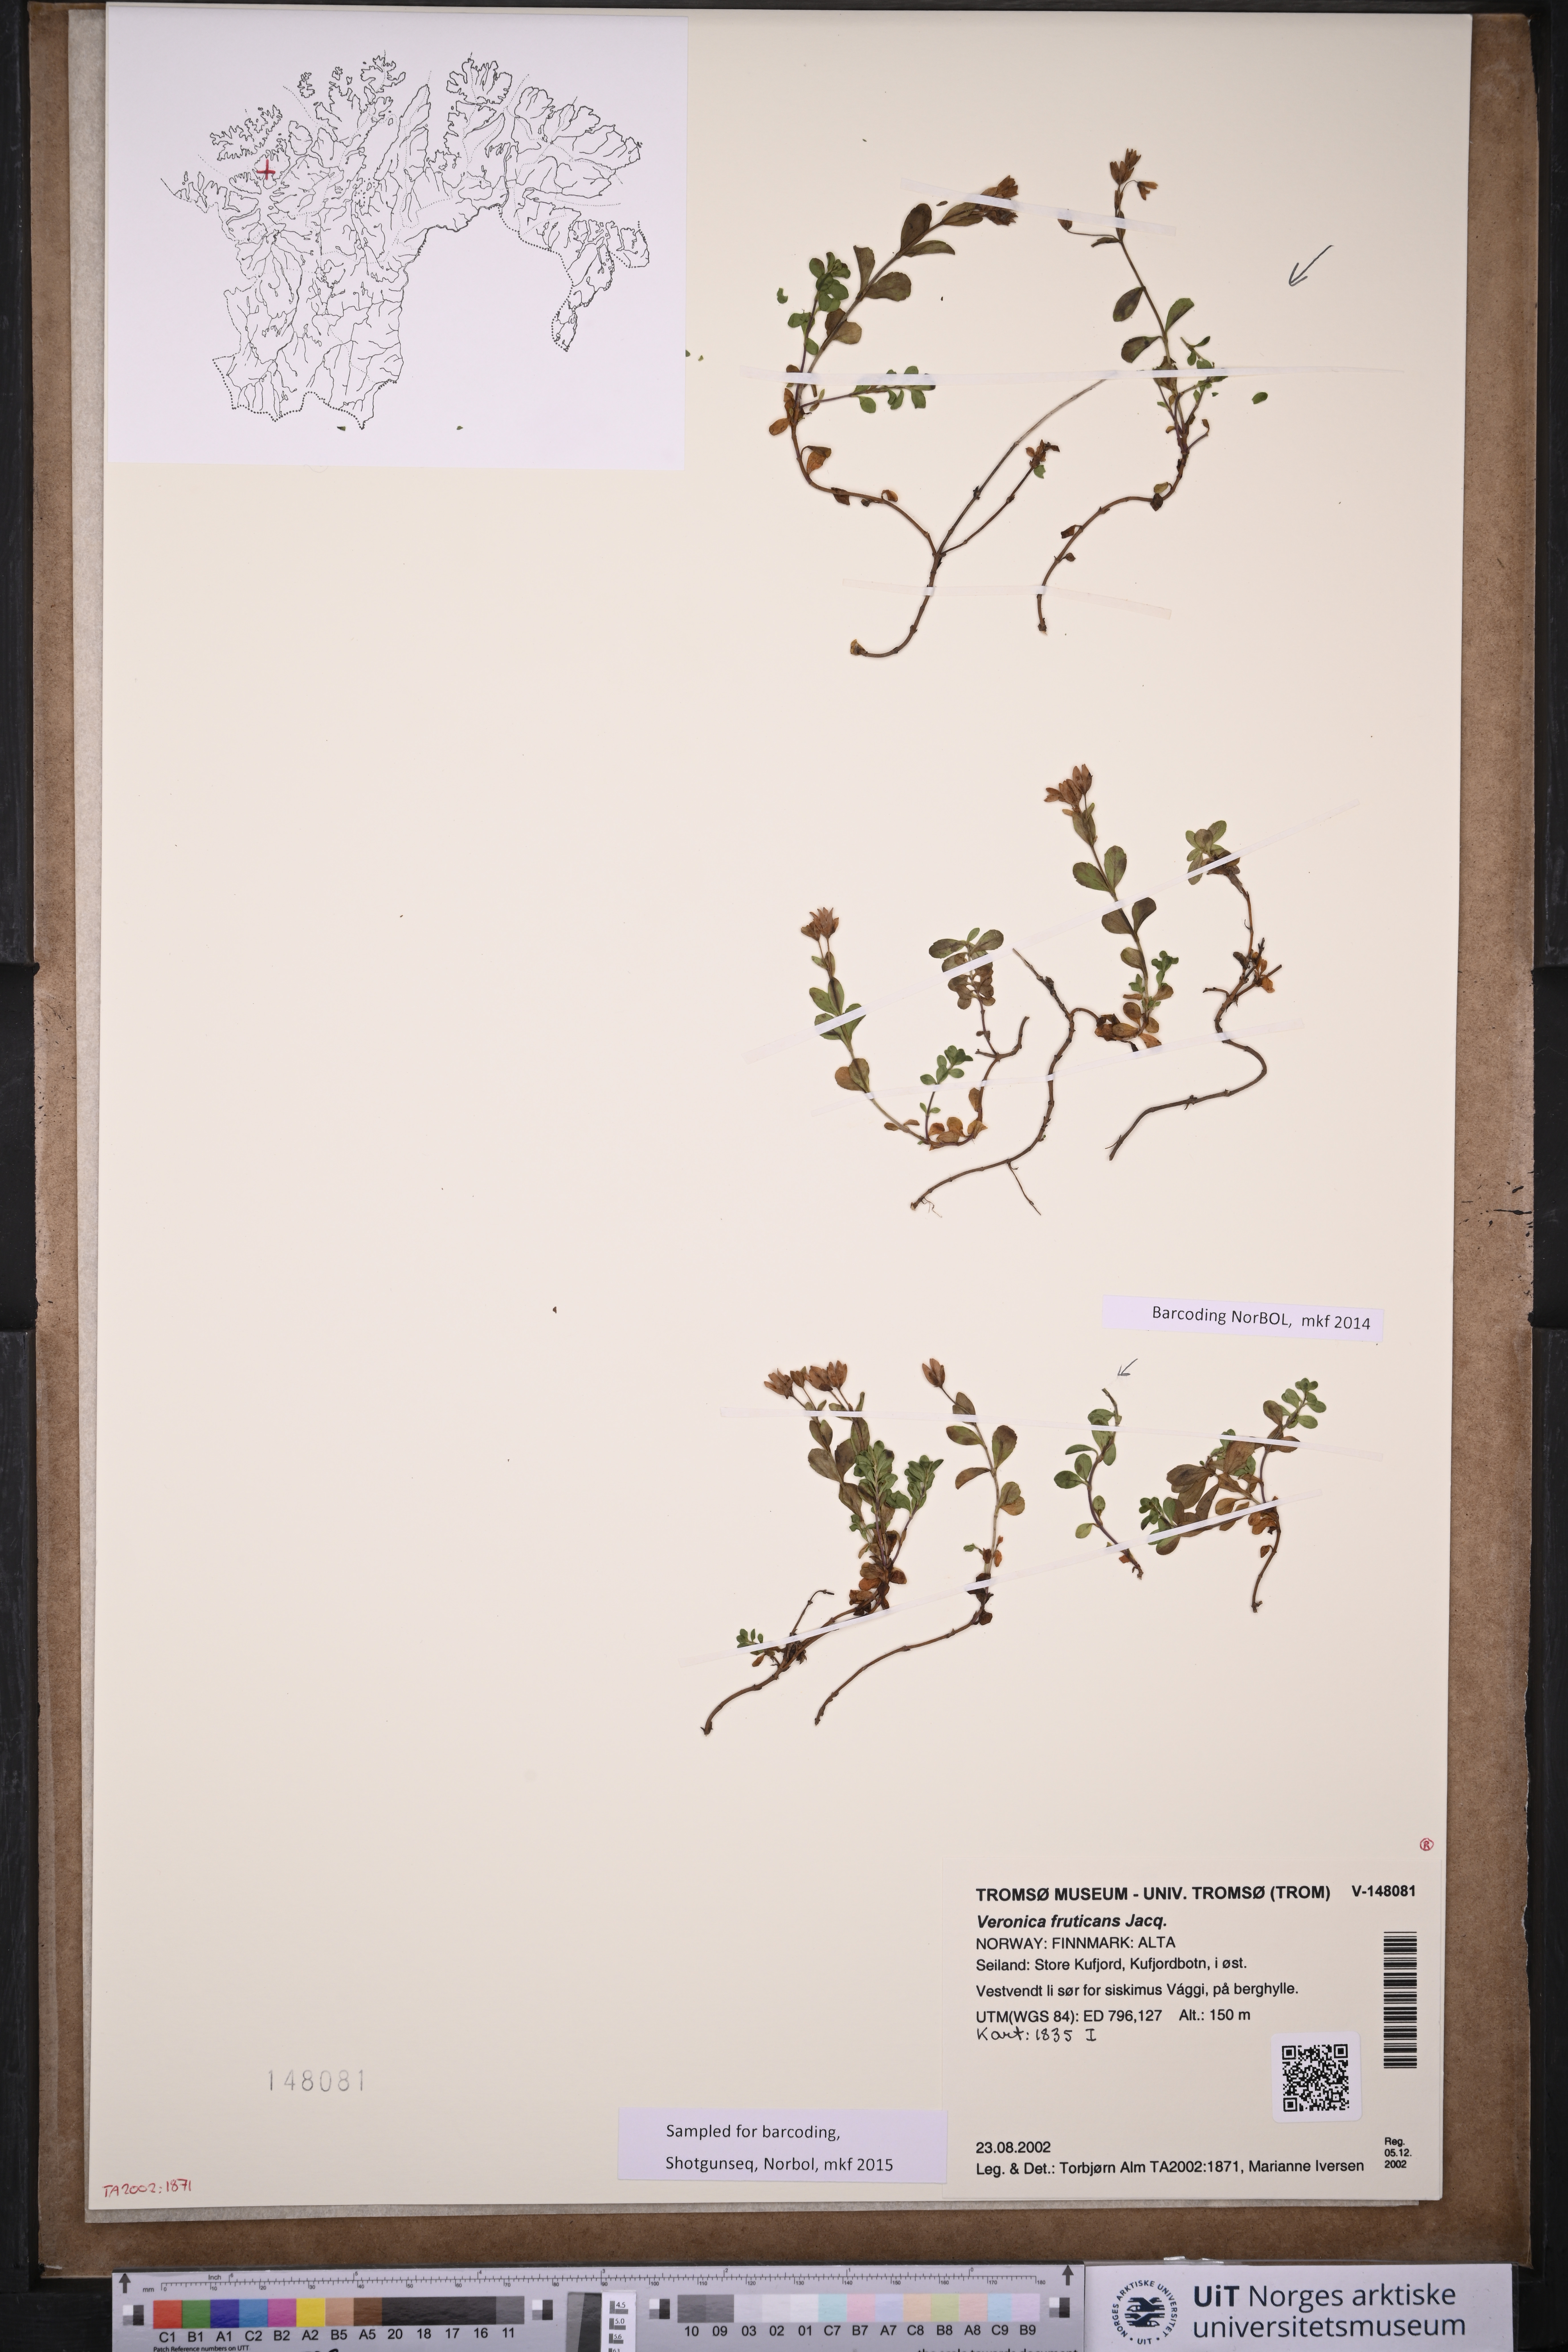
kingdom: Plantae
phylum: Tracheophyta
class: Magnoliopsida
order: Lamiales
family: Plantaginaceae
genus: Veronica
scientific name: Veronica fruticans
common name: Rock speedwell
